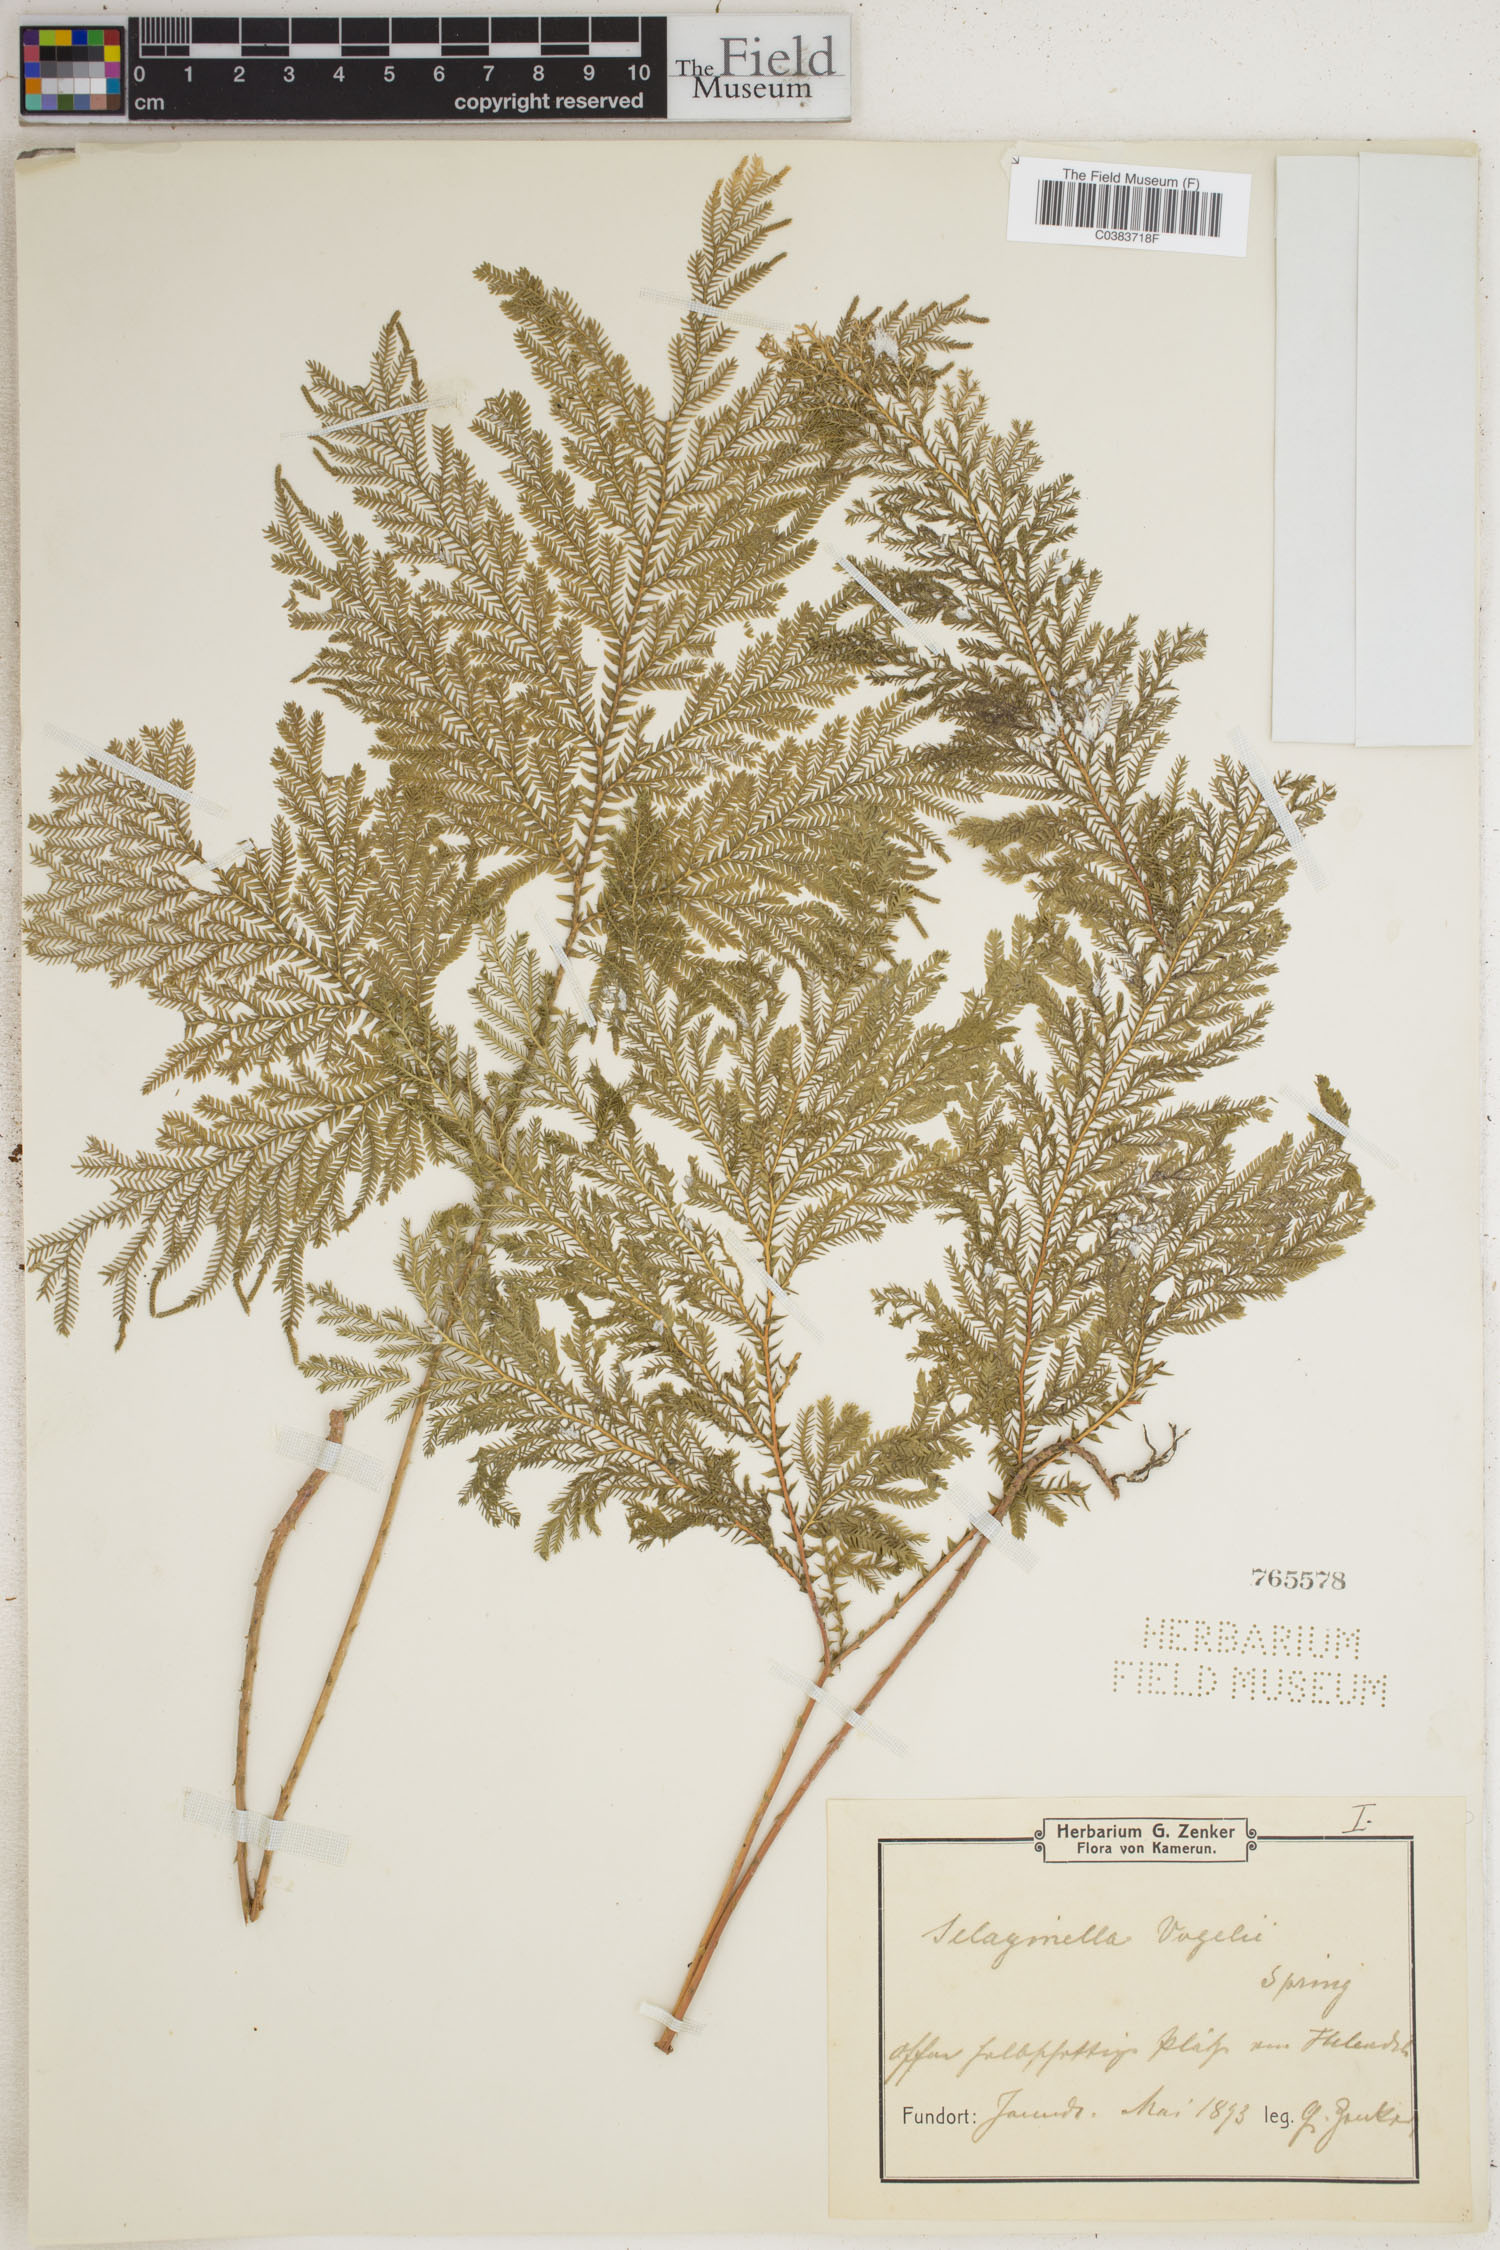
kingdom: Plantae
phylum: Tracheophyta
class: Lycopodiopsida
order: Selaginellales
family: Selaginellaceae
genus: Selaginella
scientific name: Selaginella vogelii
